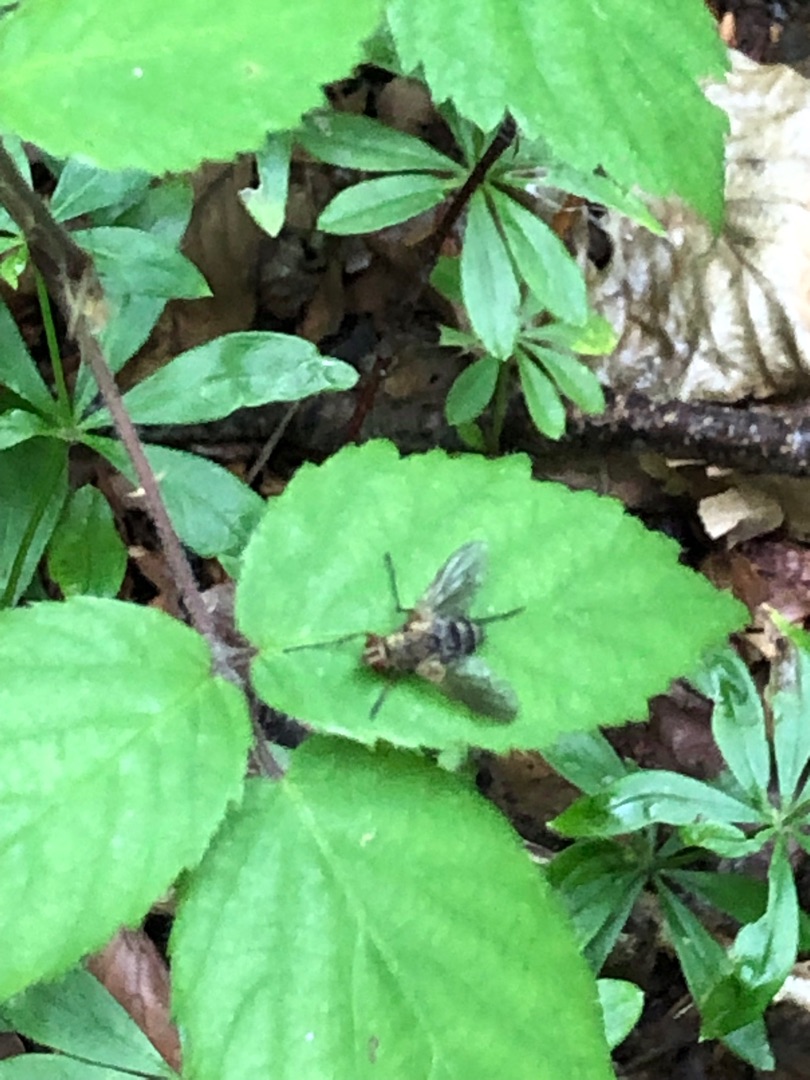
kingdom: Animalia
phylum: Arthropoda
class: Insecta
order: Diptera
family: Tachinidae
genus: Dexiosoma
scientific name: Dexiosoma caninum
